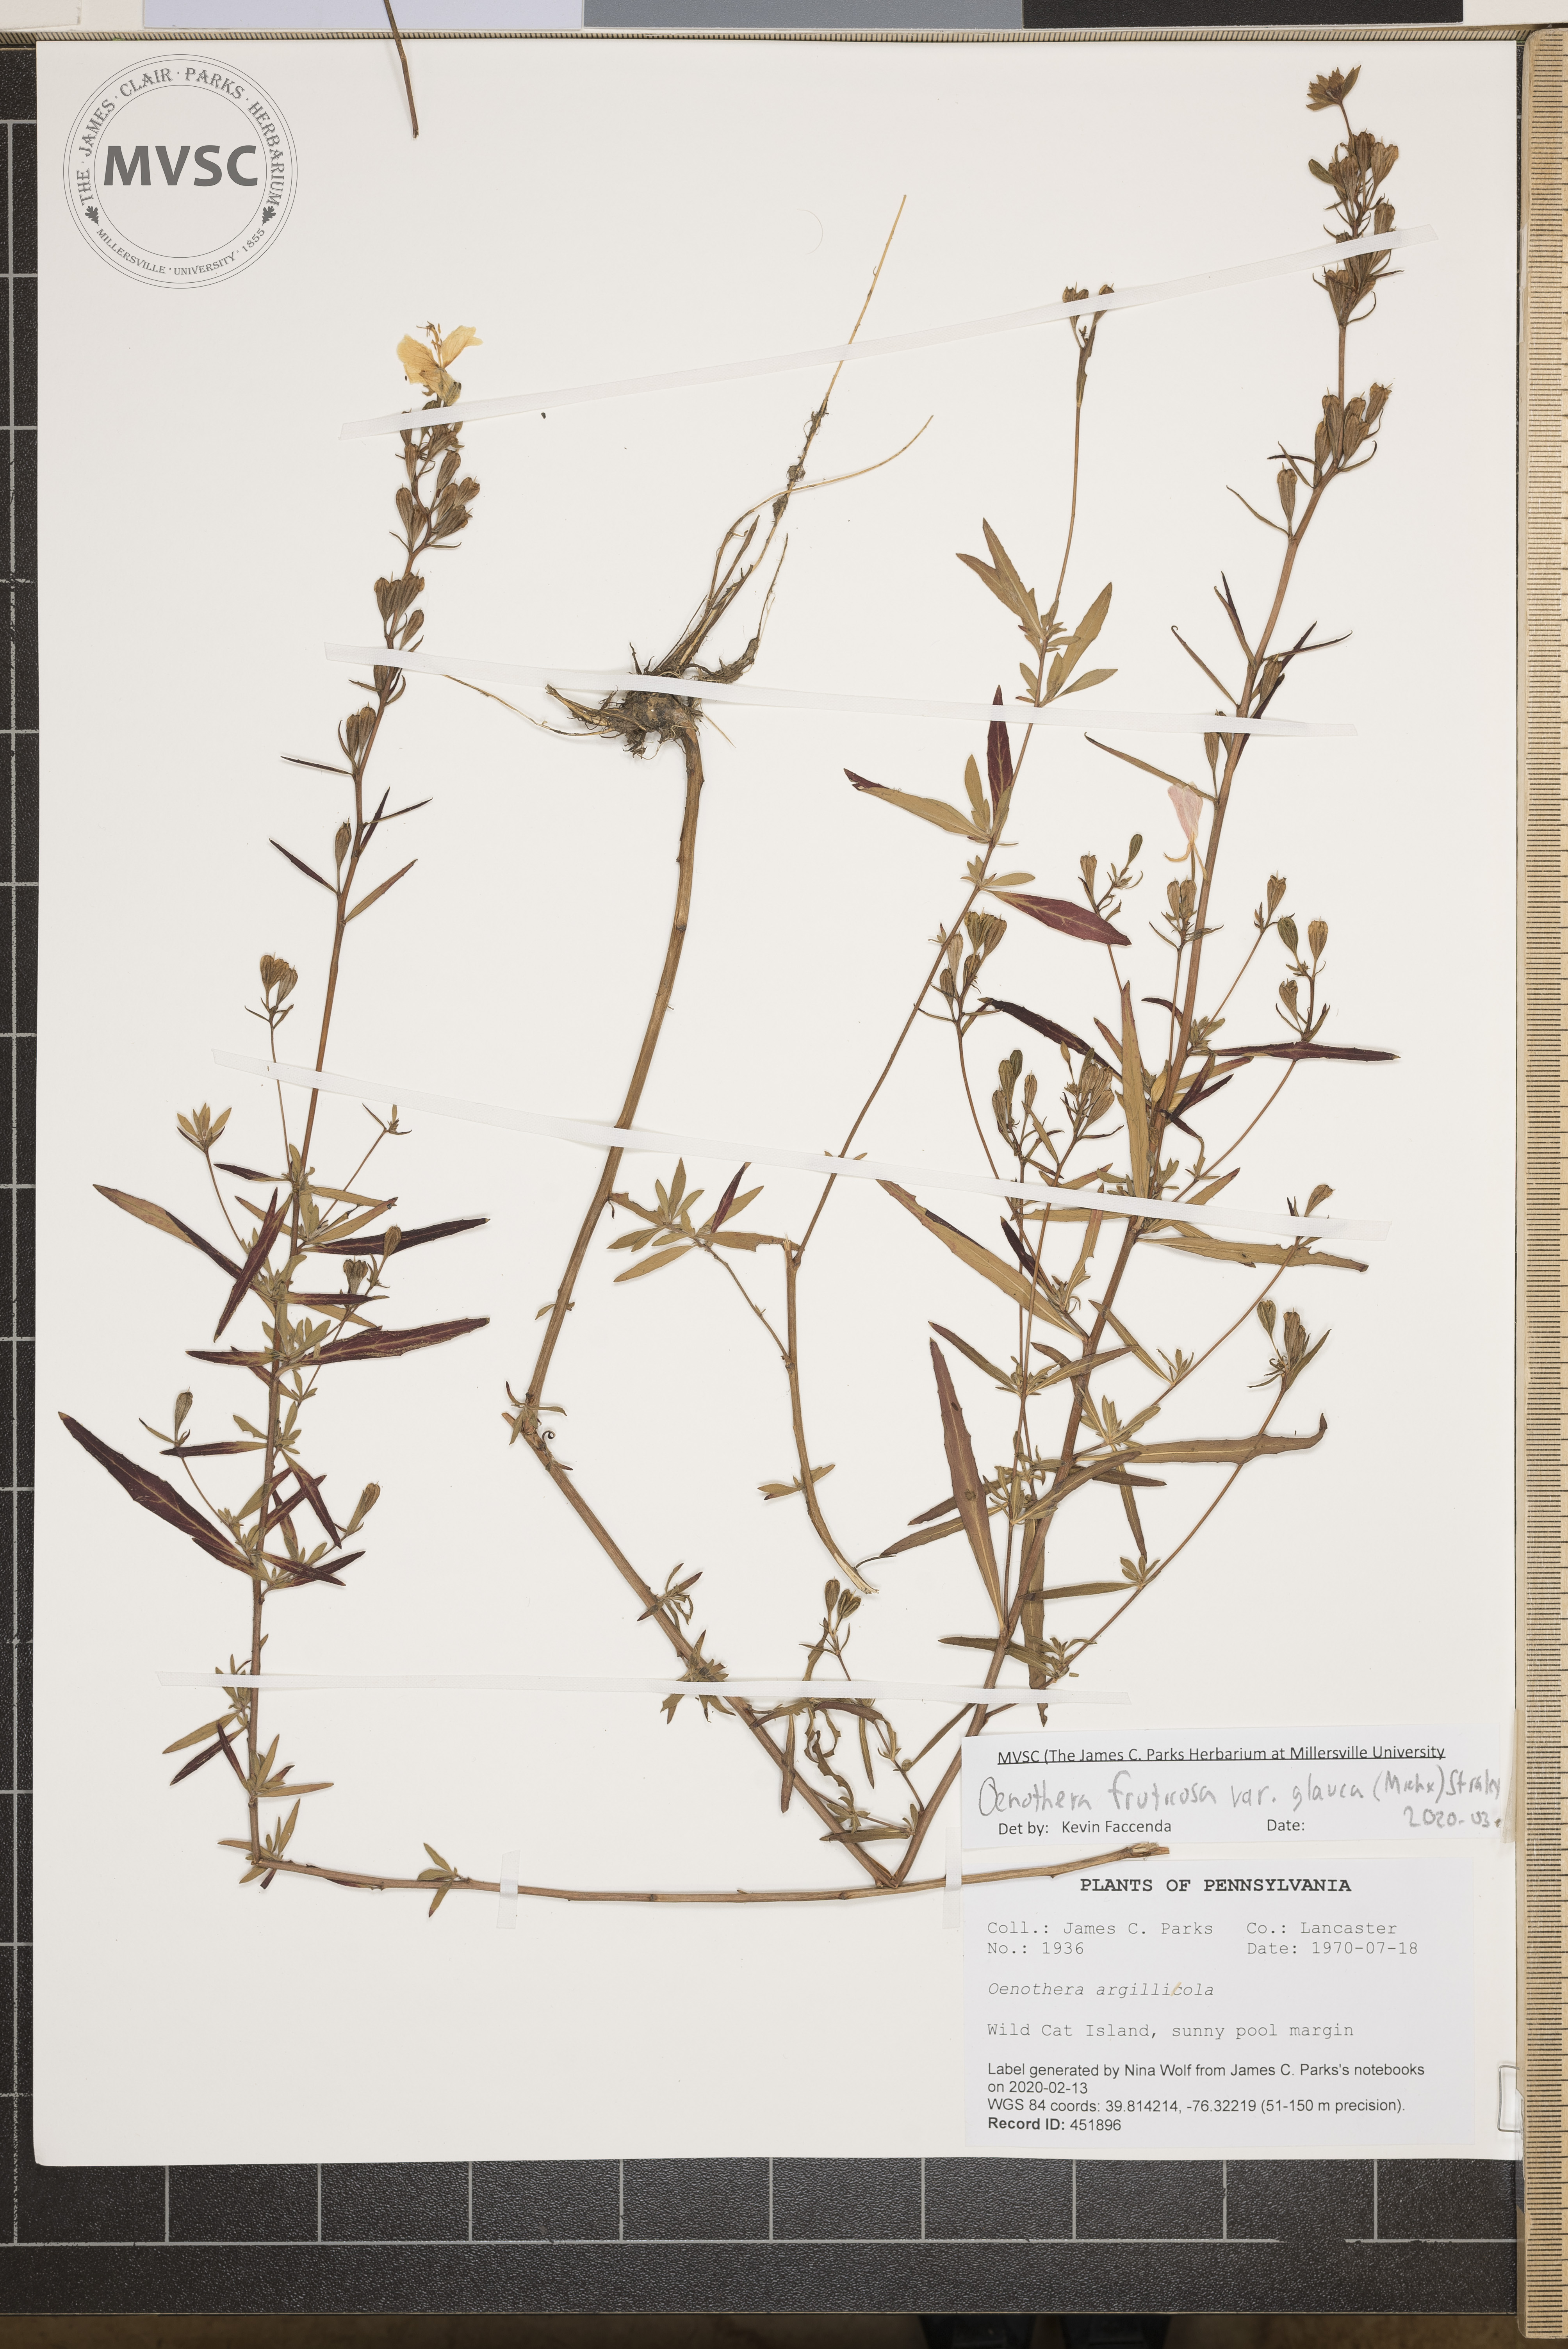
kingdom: Plantae
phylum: Tracheophyta
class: Magnoliopsida
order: Myrtales
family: Onagraceae
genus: Oenothera
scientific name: Oenothera fruticosa
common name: Southern sundrops
